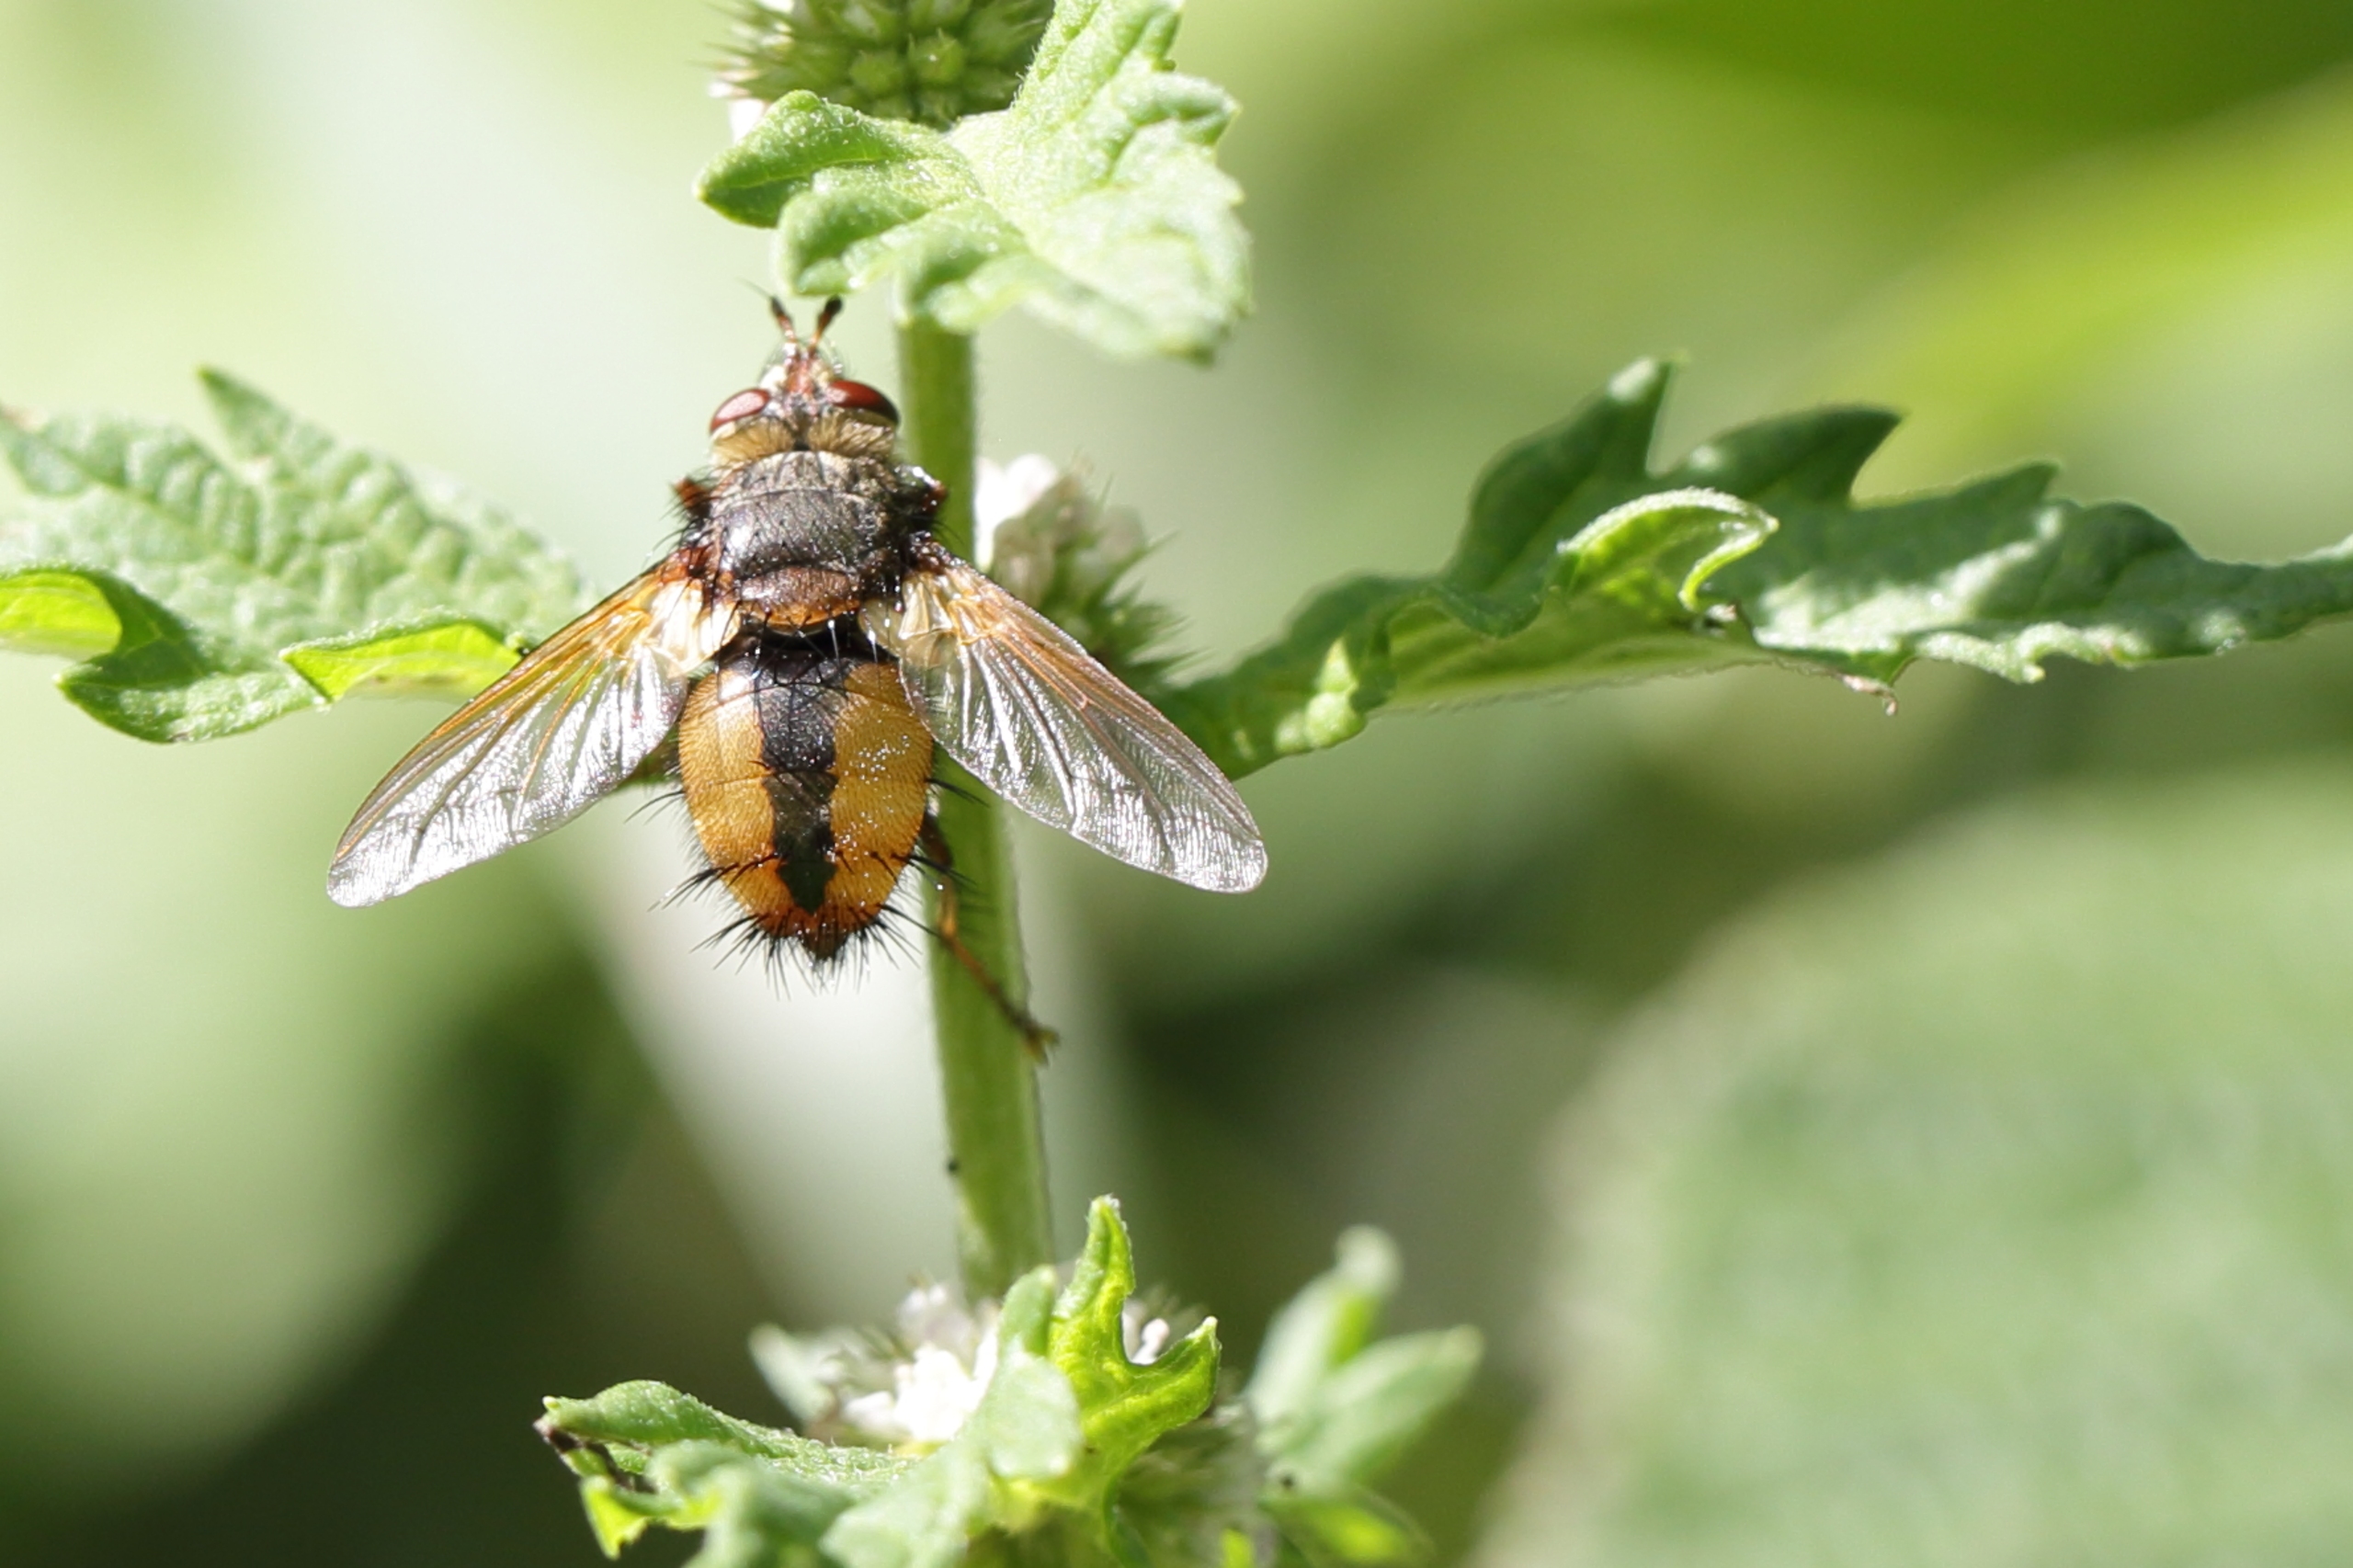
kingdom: Animalia
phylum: Arthropoda
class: Insecta
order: Diptera
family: Tachinidae
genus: Tachina
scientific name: Tachina fera
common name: Mellemfluen oskar
